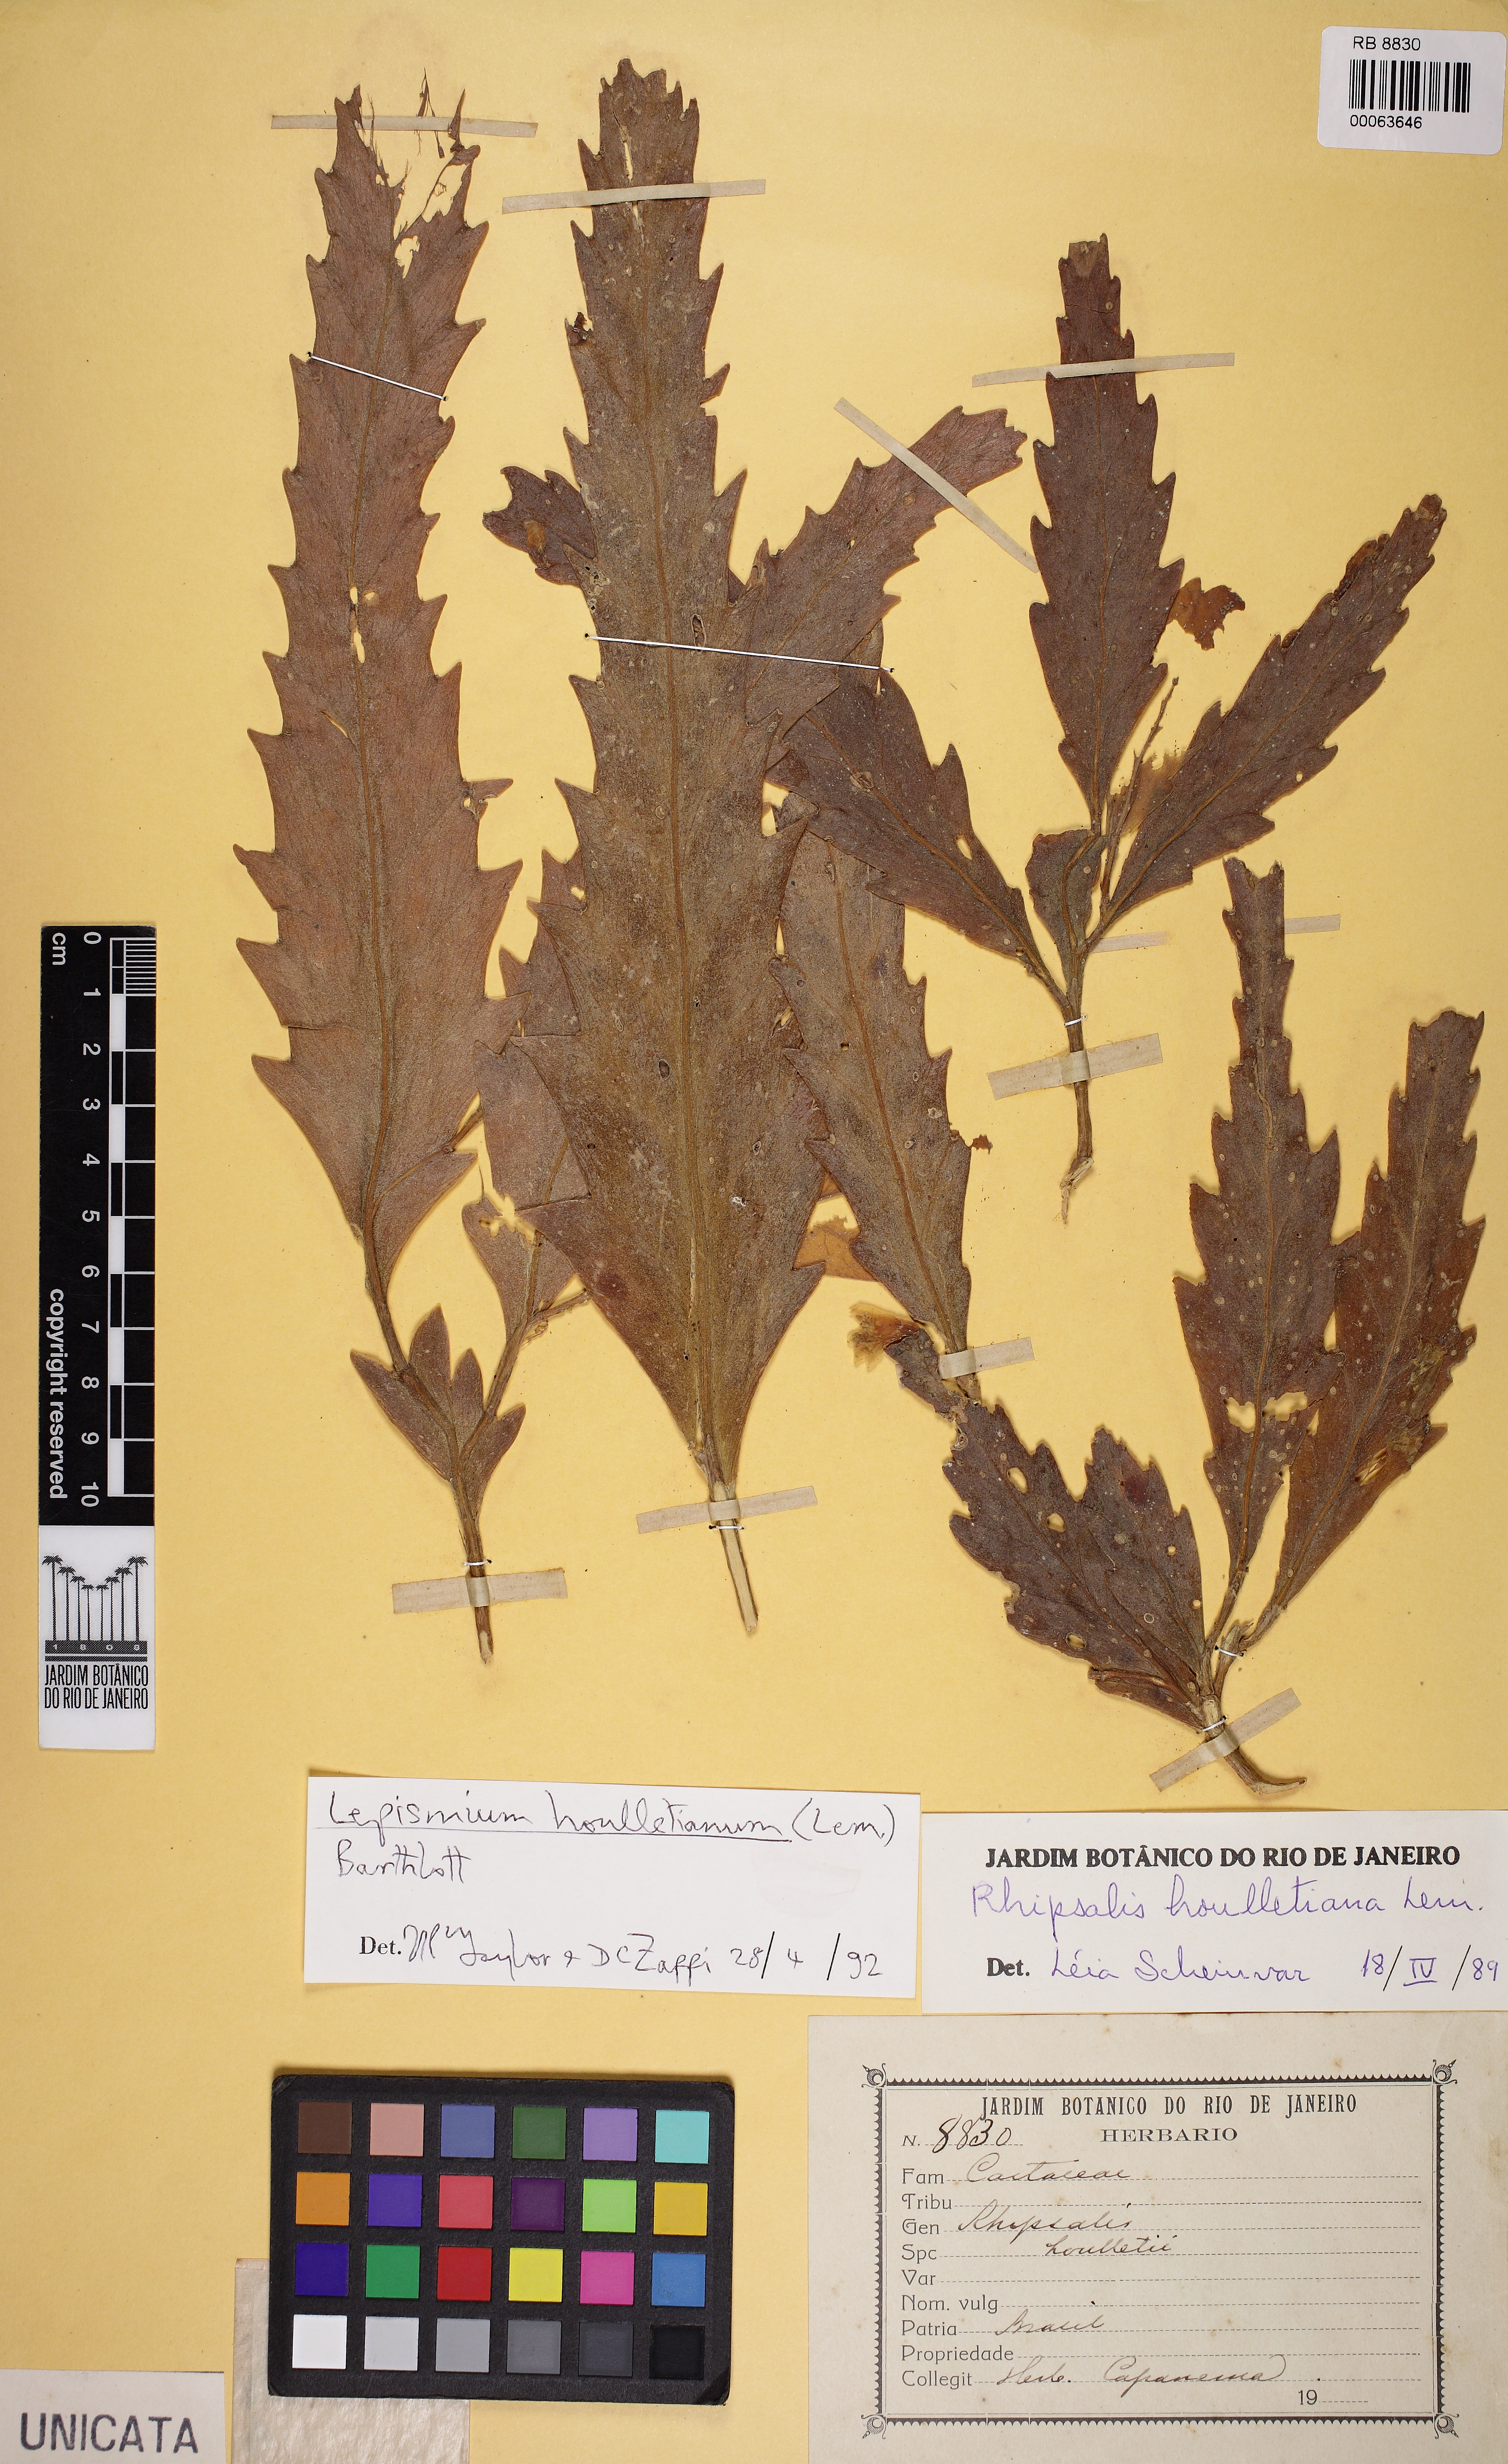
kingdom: Plantae
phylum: Tracheophyta
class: Magnoliopsida
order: Caryophyllales
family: Cactaceae
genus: Lepismium
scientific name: Lepismium houlletianum
